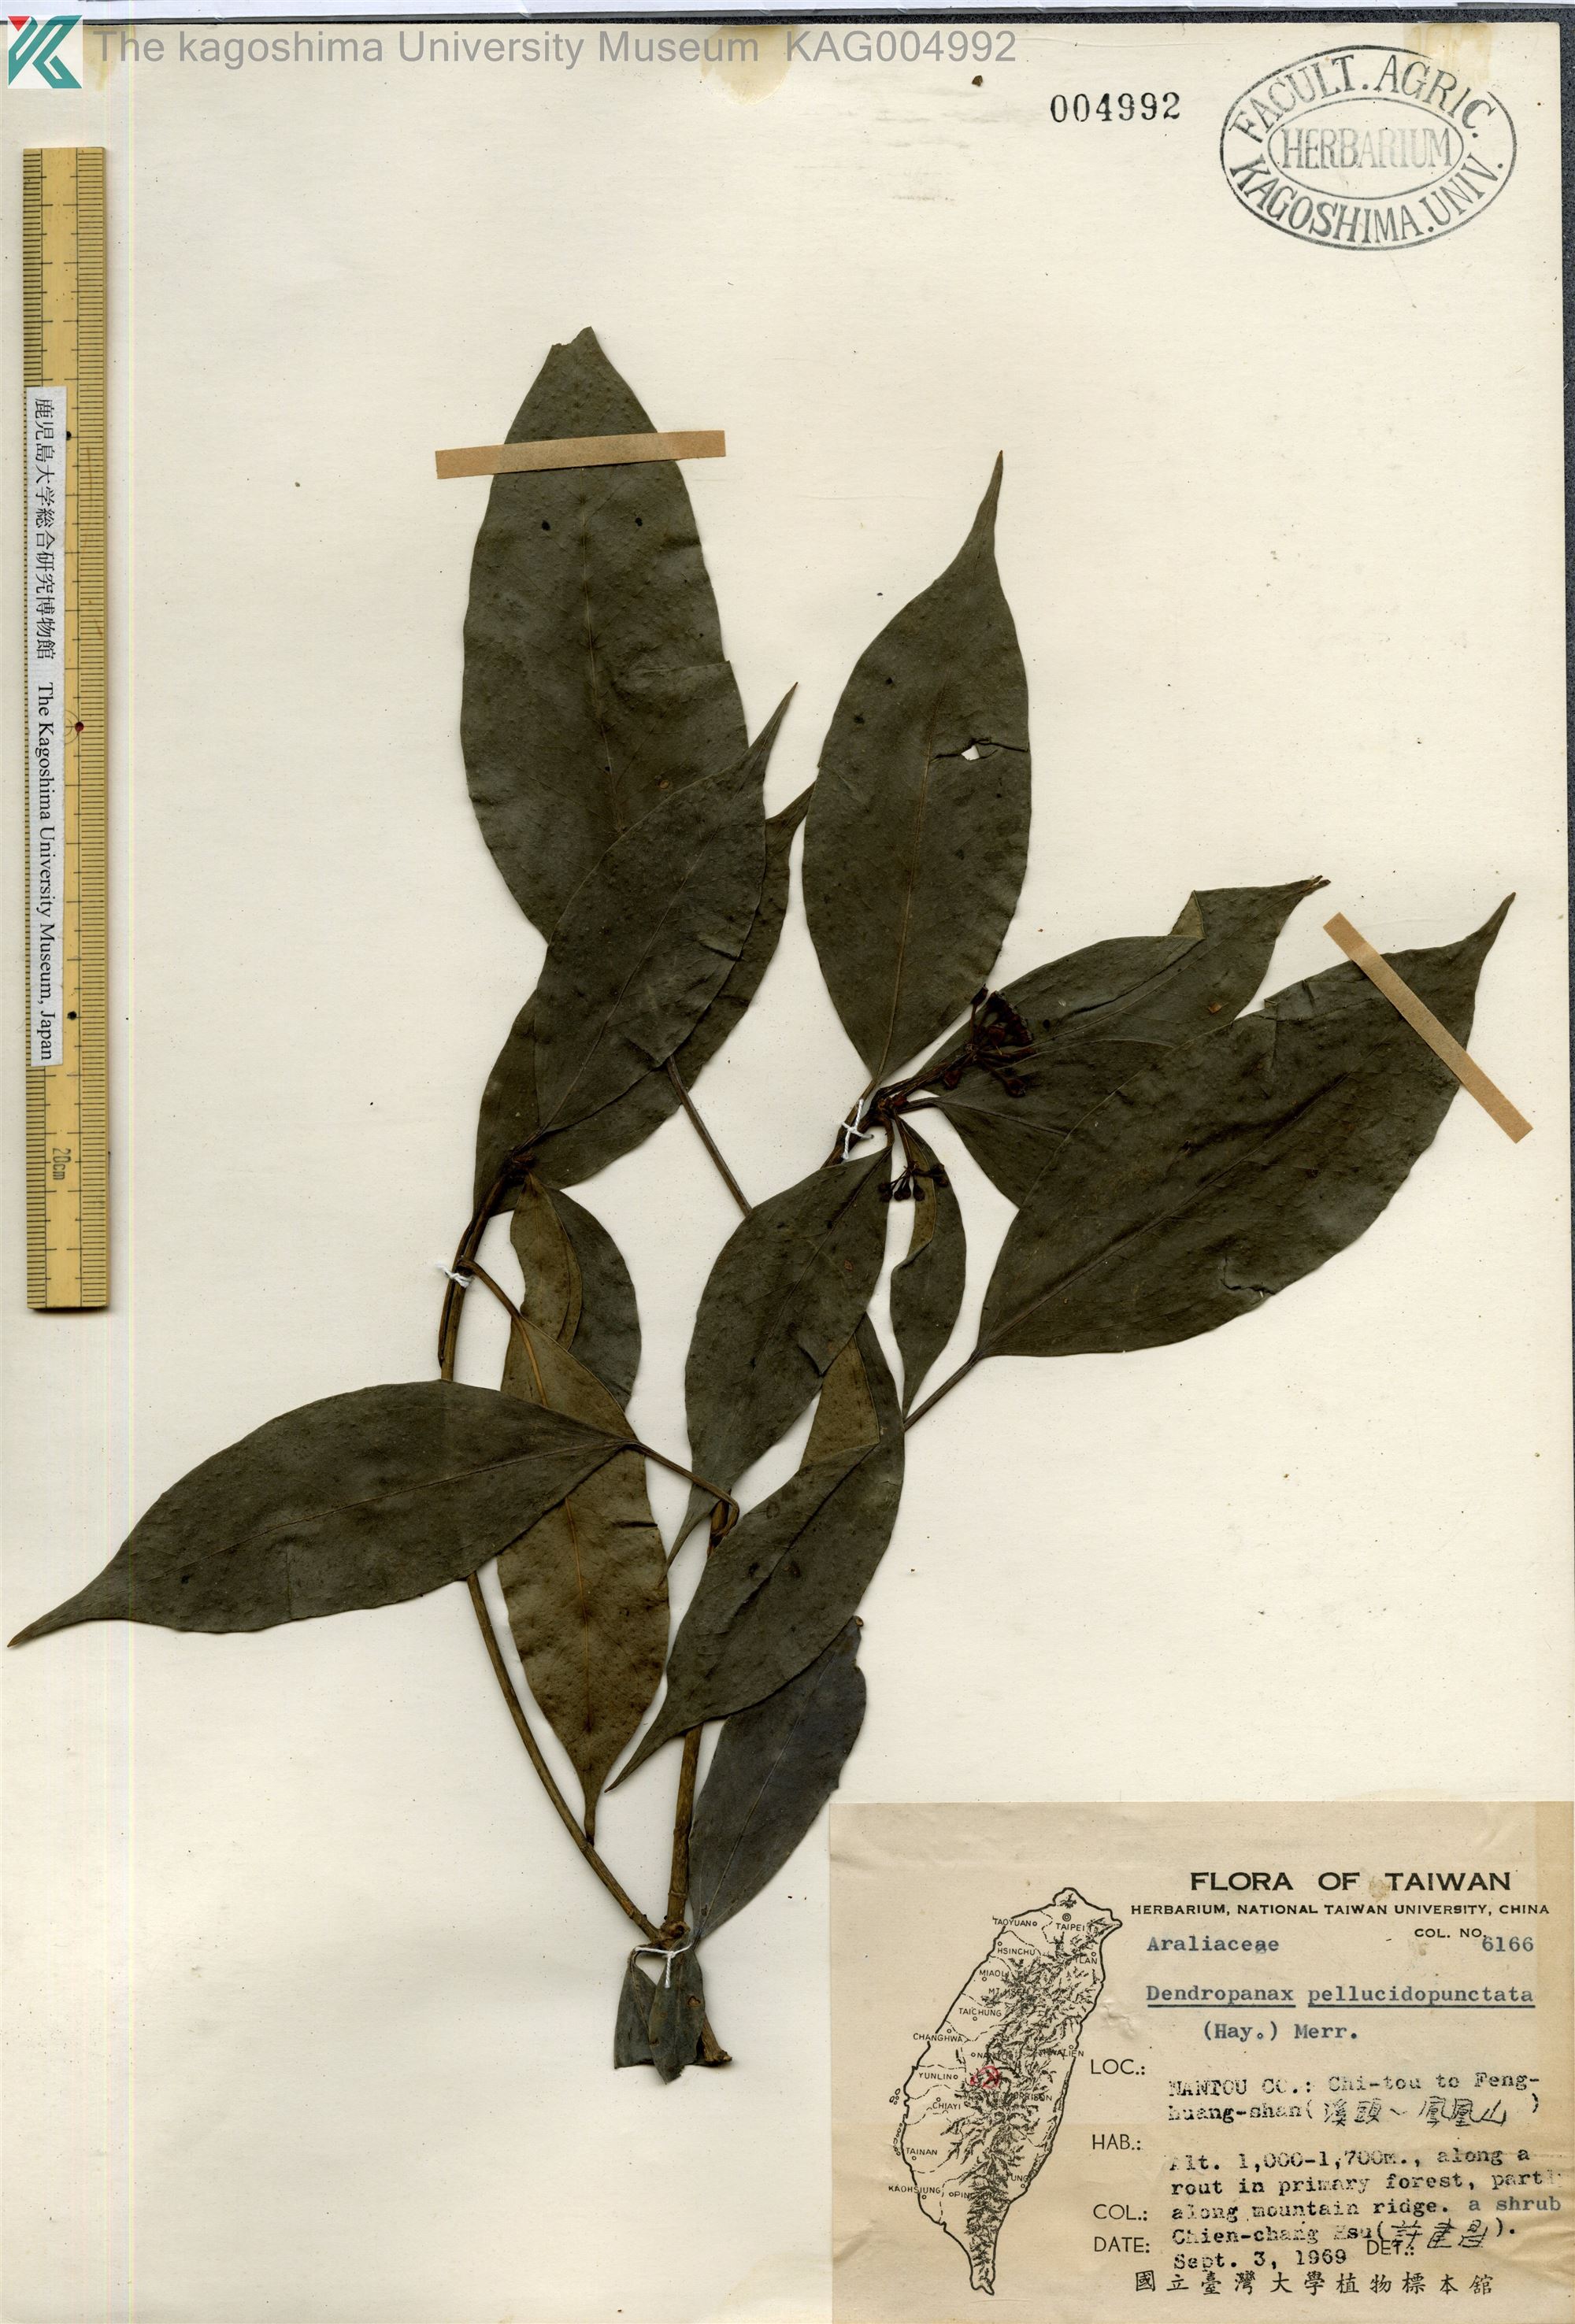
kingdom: Plantae
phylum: Tracheophyta
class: Magnoliopsida
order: Apiales
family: Araliaceae
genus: Dendropanax
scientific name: Dendropanax pellucidopunctatus
